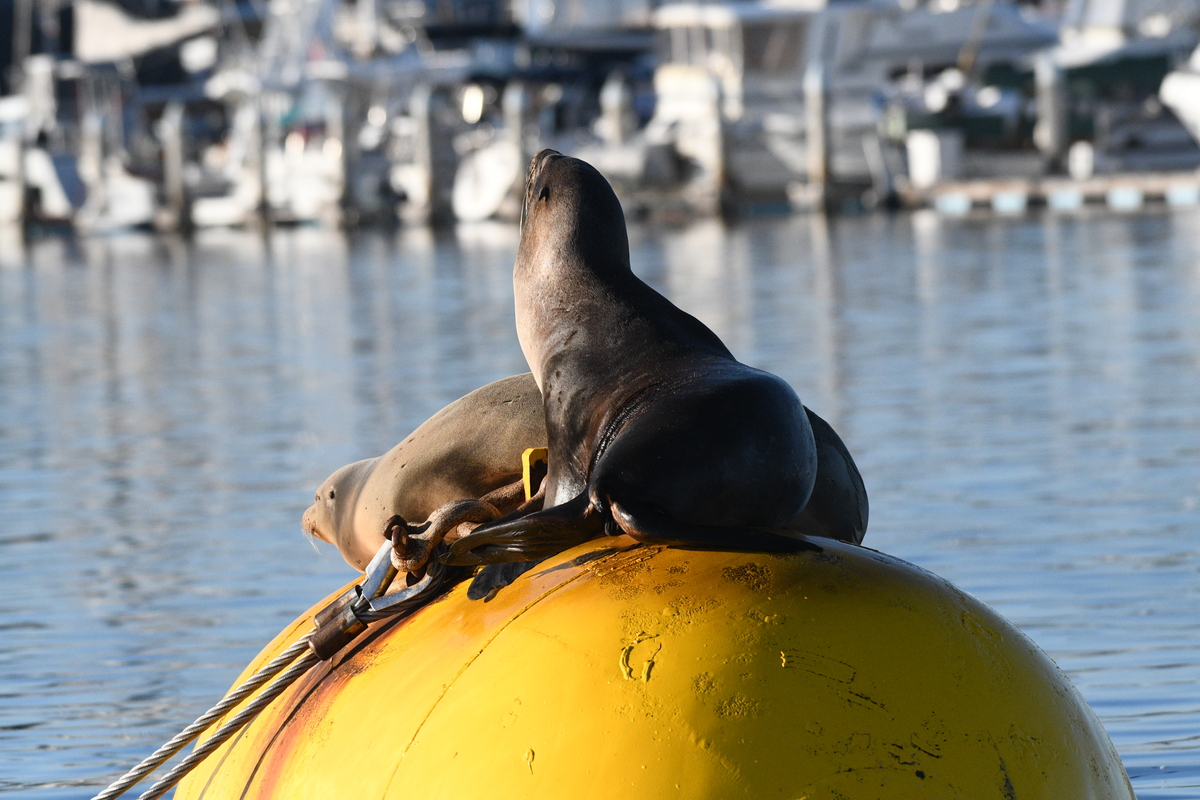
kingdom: Animalia
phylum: Chordata
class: Mammalia
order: Carnivora
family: Otariidae
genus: Zalophus
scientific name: Zalophus californianus
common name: California sea lion
